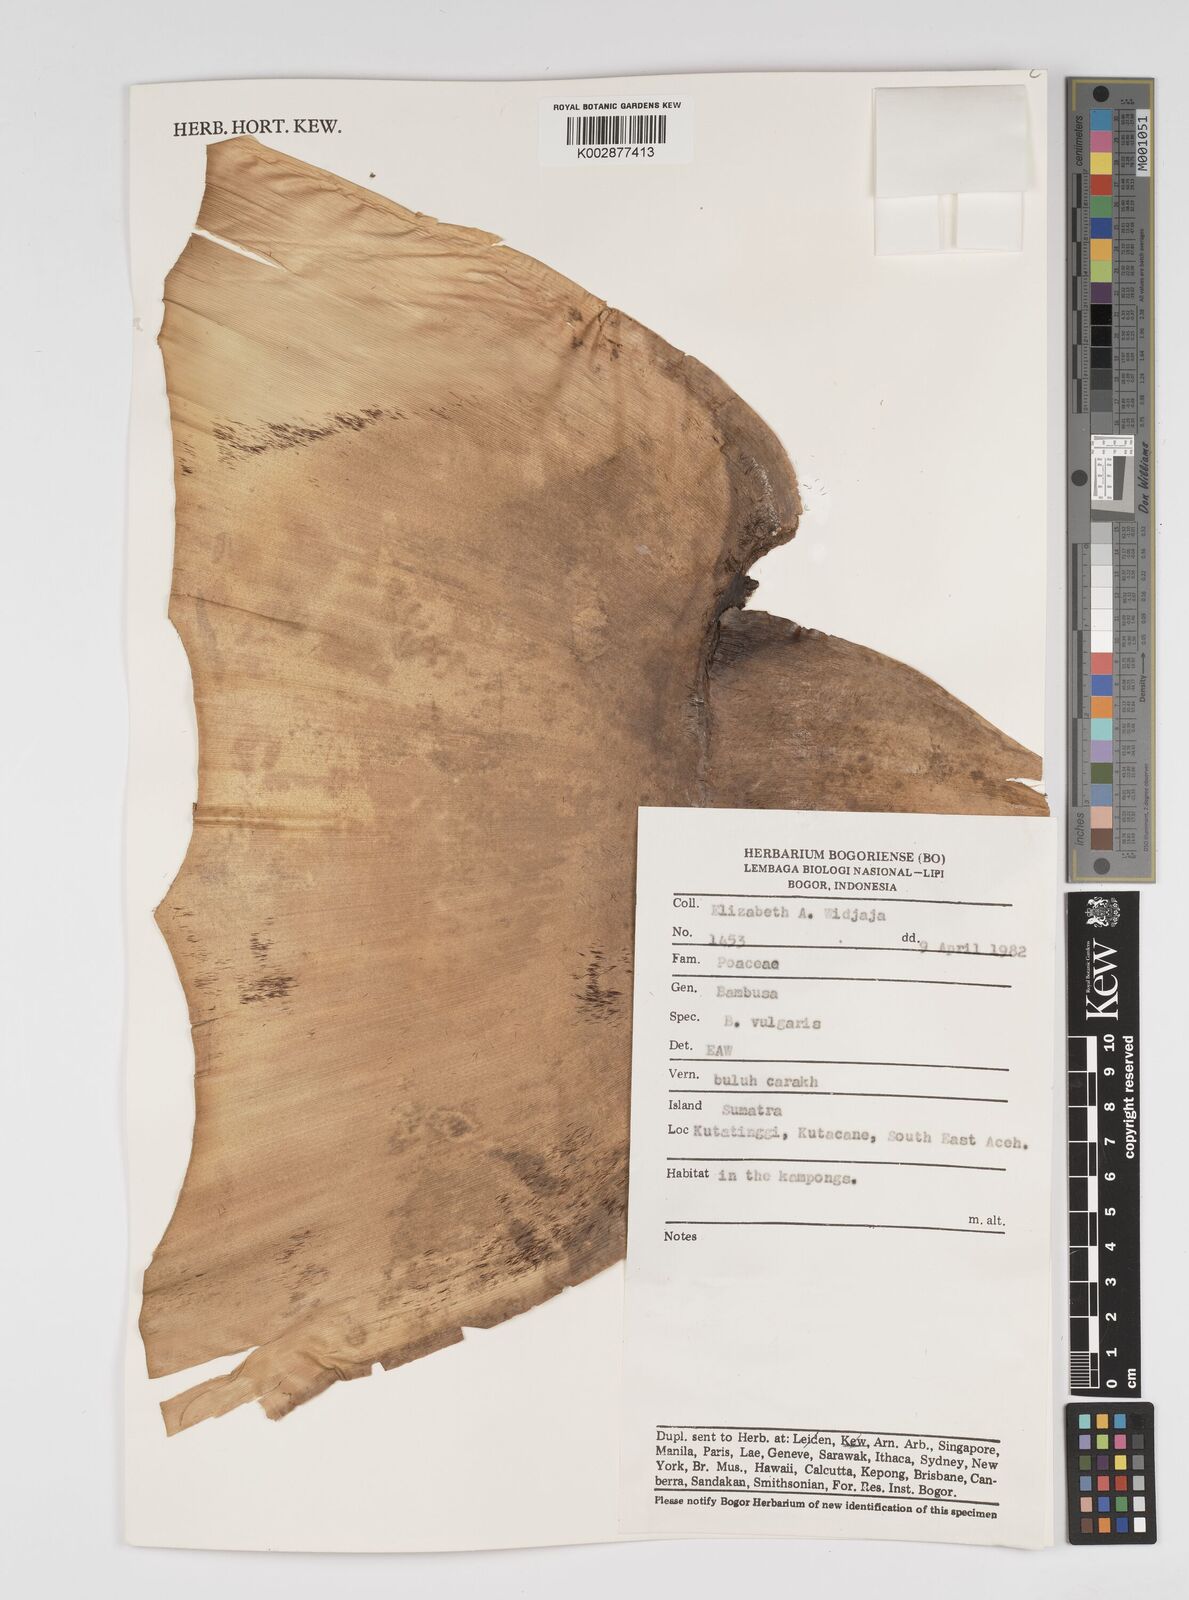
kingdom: Plantae
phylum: Tracheophyta
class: Liliopsida
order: Poales
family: Poaceae
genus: Bambusa
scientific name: Bambusa vulgaris
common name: Common bamboo
